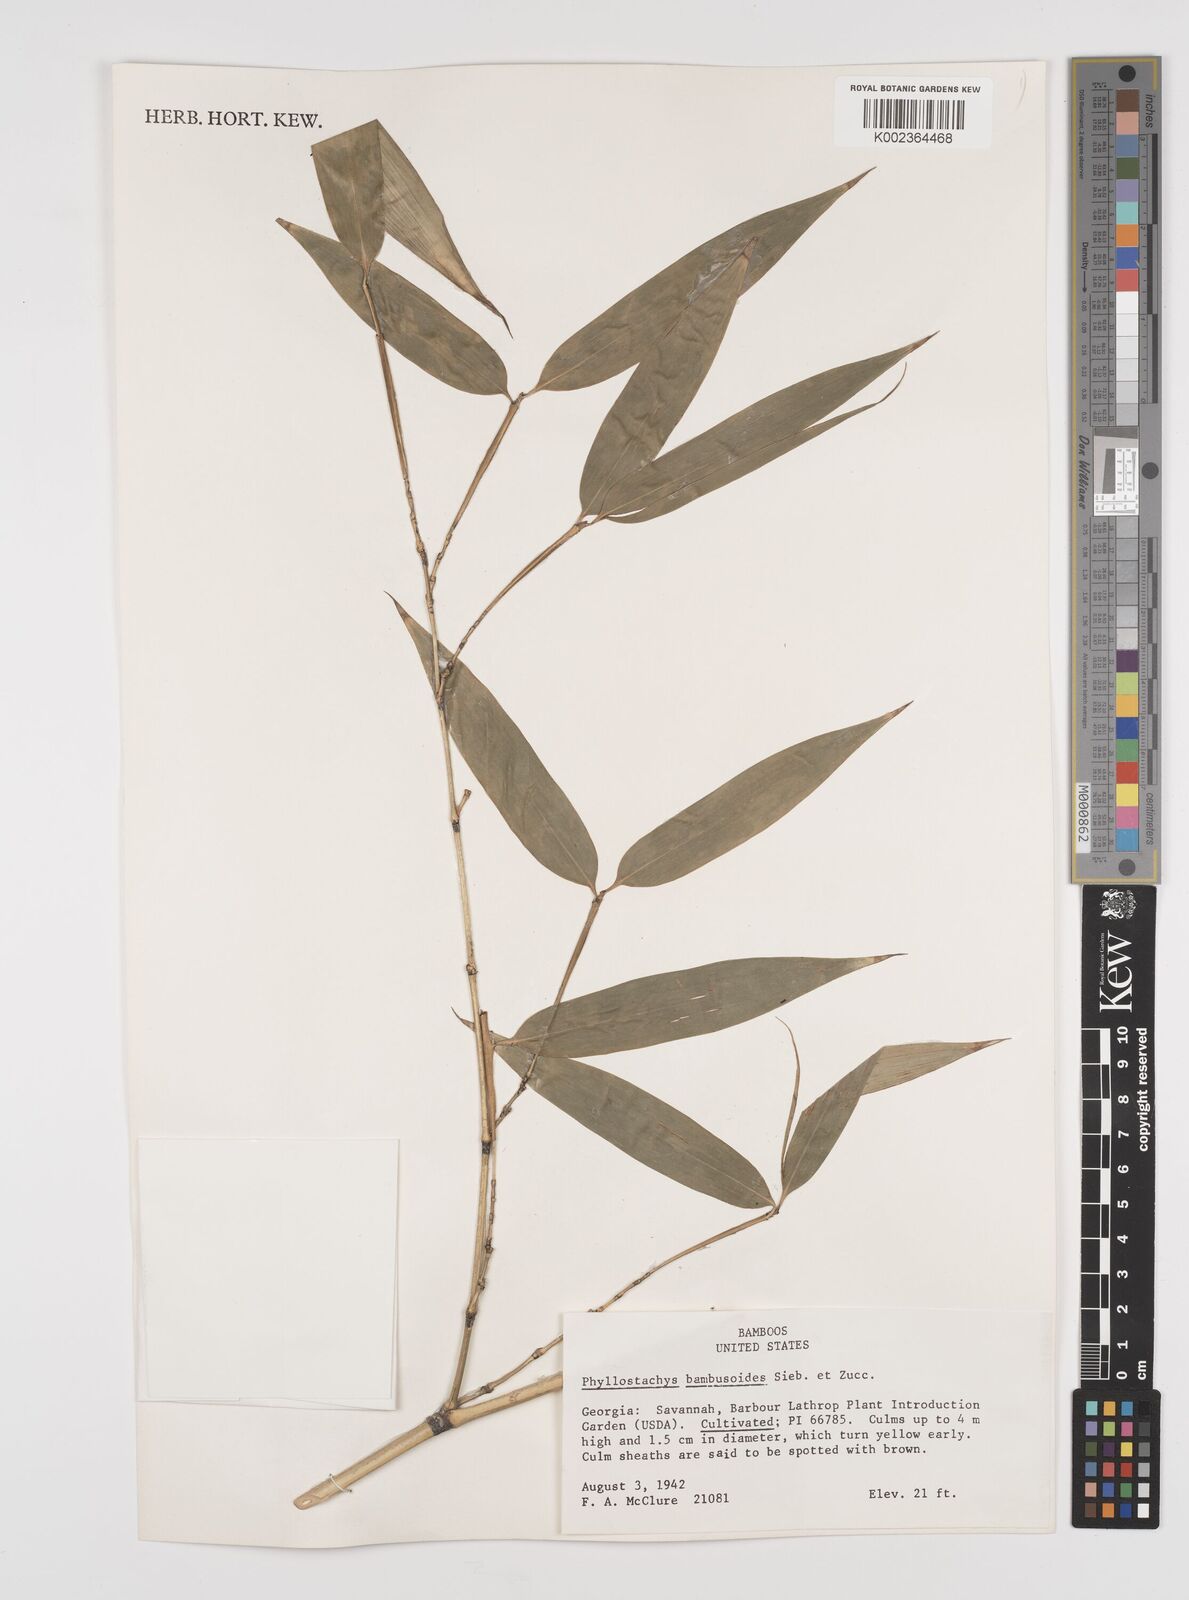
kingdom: Plantae
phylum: Tracheophyta
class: Liliopsida
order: Poales
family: Poaceae
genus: Phyllostachys
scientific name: Phyllostachys reticulata
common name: Bamboo
